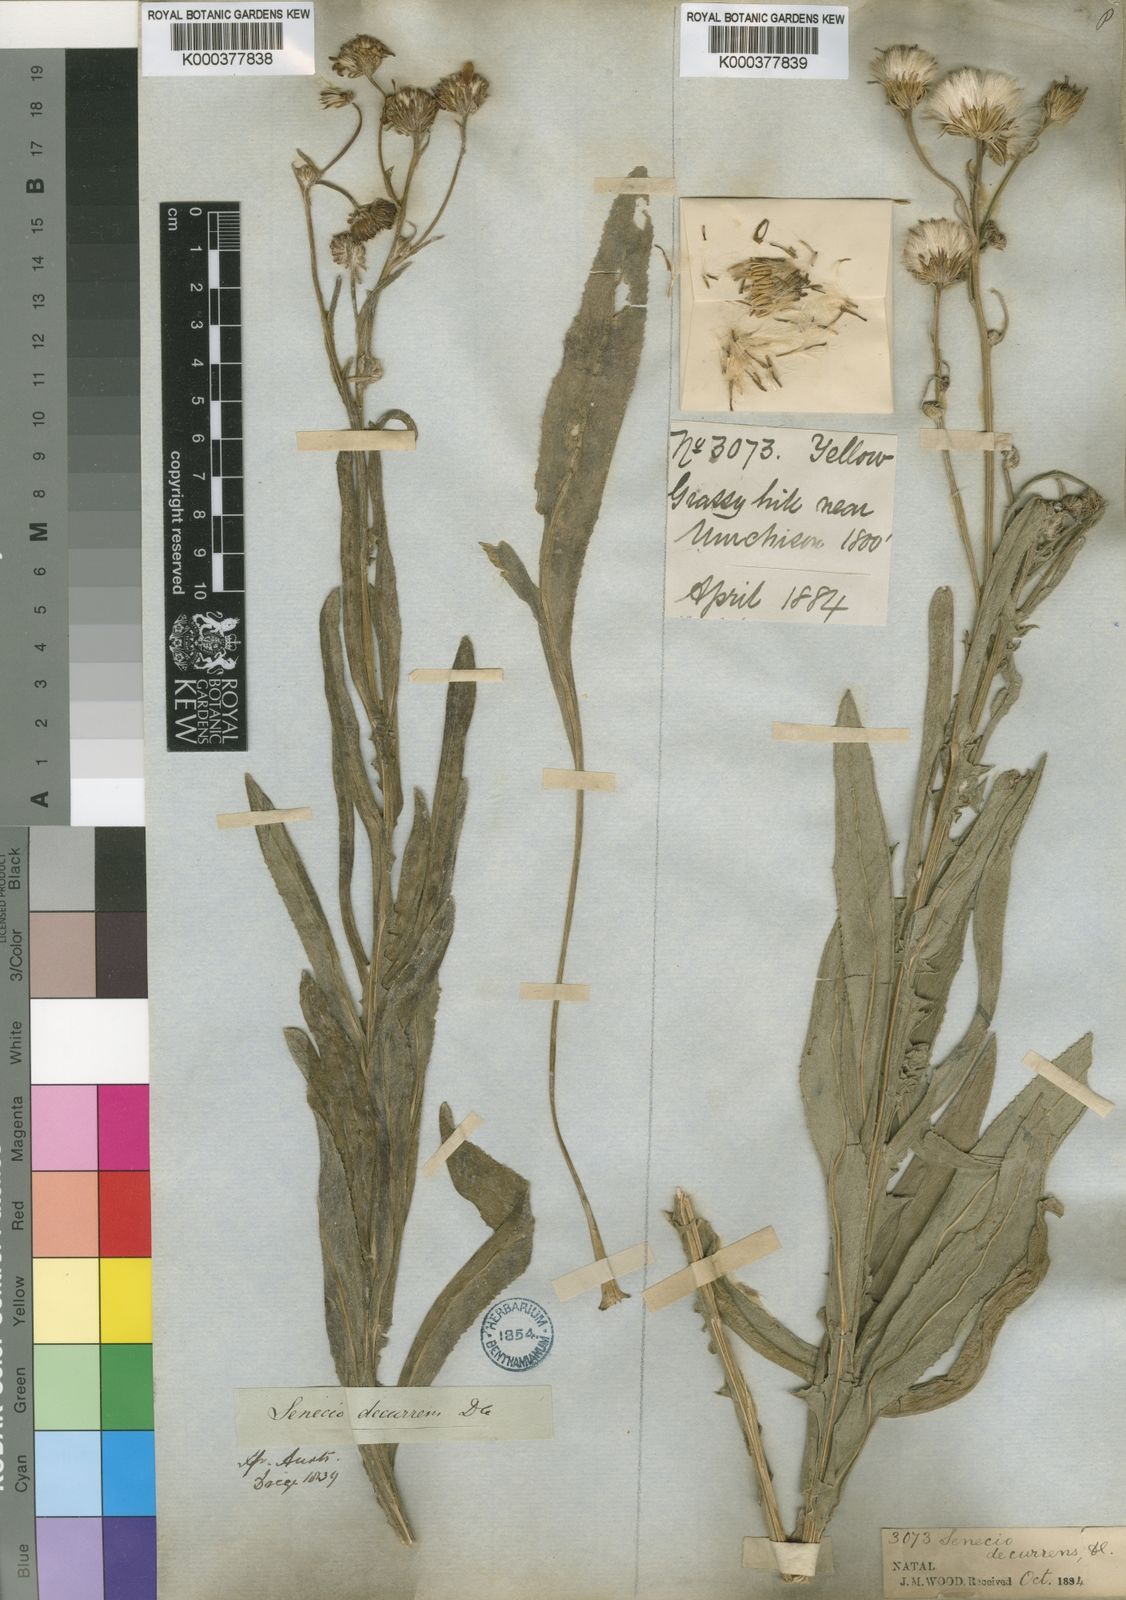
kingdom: Plantae
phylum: Tracheophyta
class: Magnoliopsida
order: Asterales
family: Asteraceae
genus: Senecio
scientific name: Senecio decurrens
